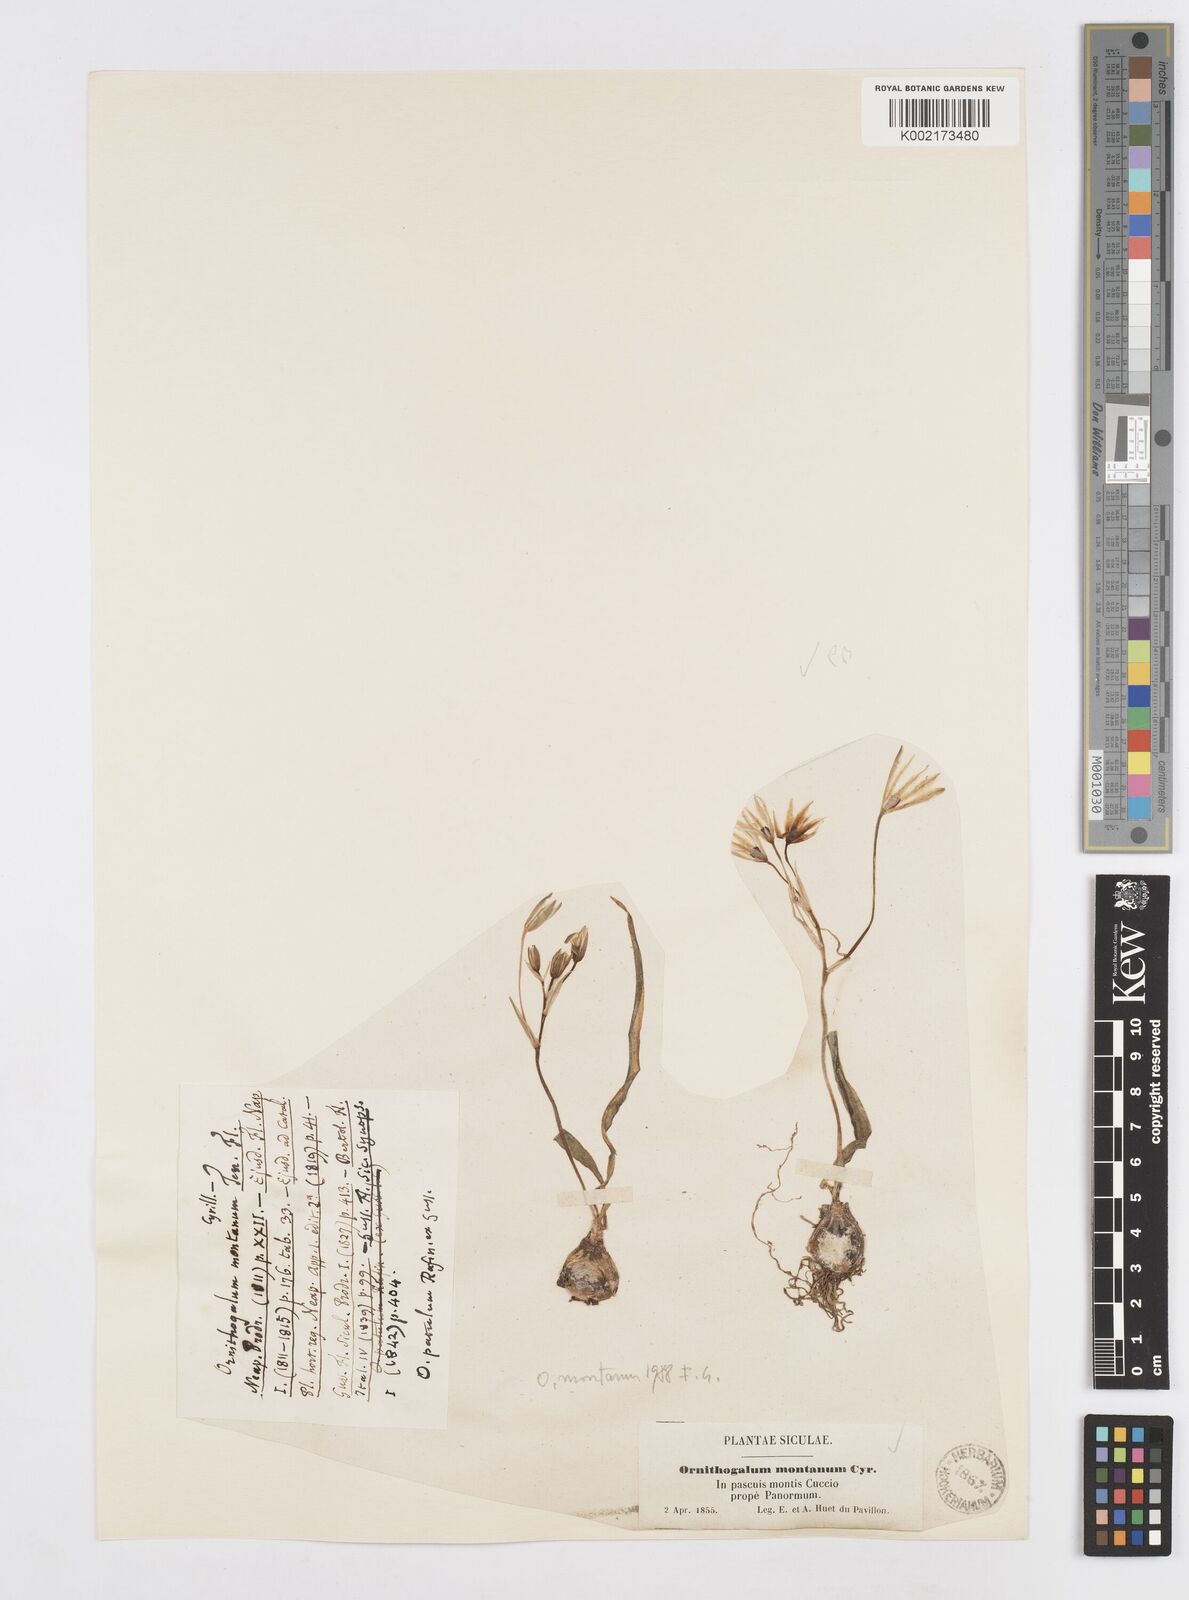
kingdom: Plantae
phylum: Tracheophyta
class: Liliopsida
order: Asparagales
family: Asparagaceae
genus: Ornithogalum
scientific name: Ornithogalum montanum
